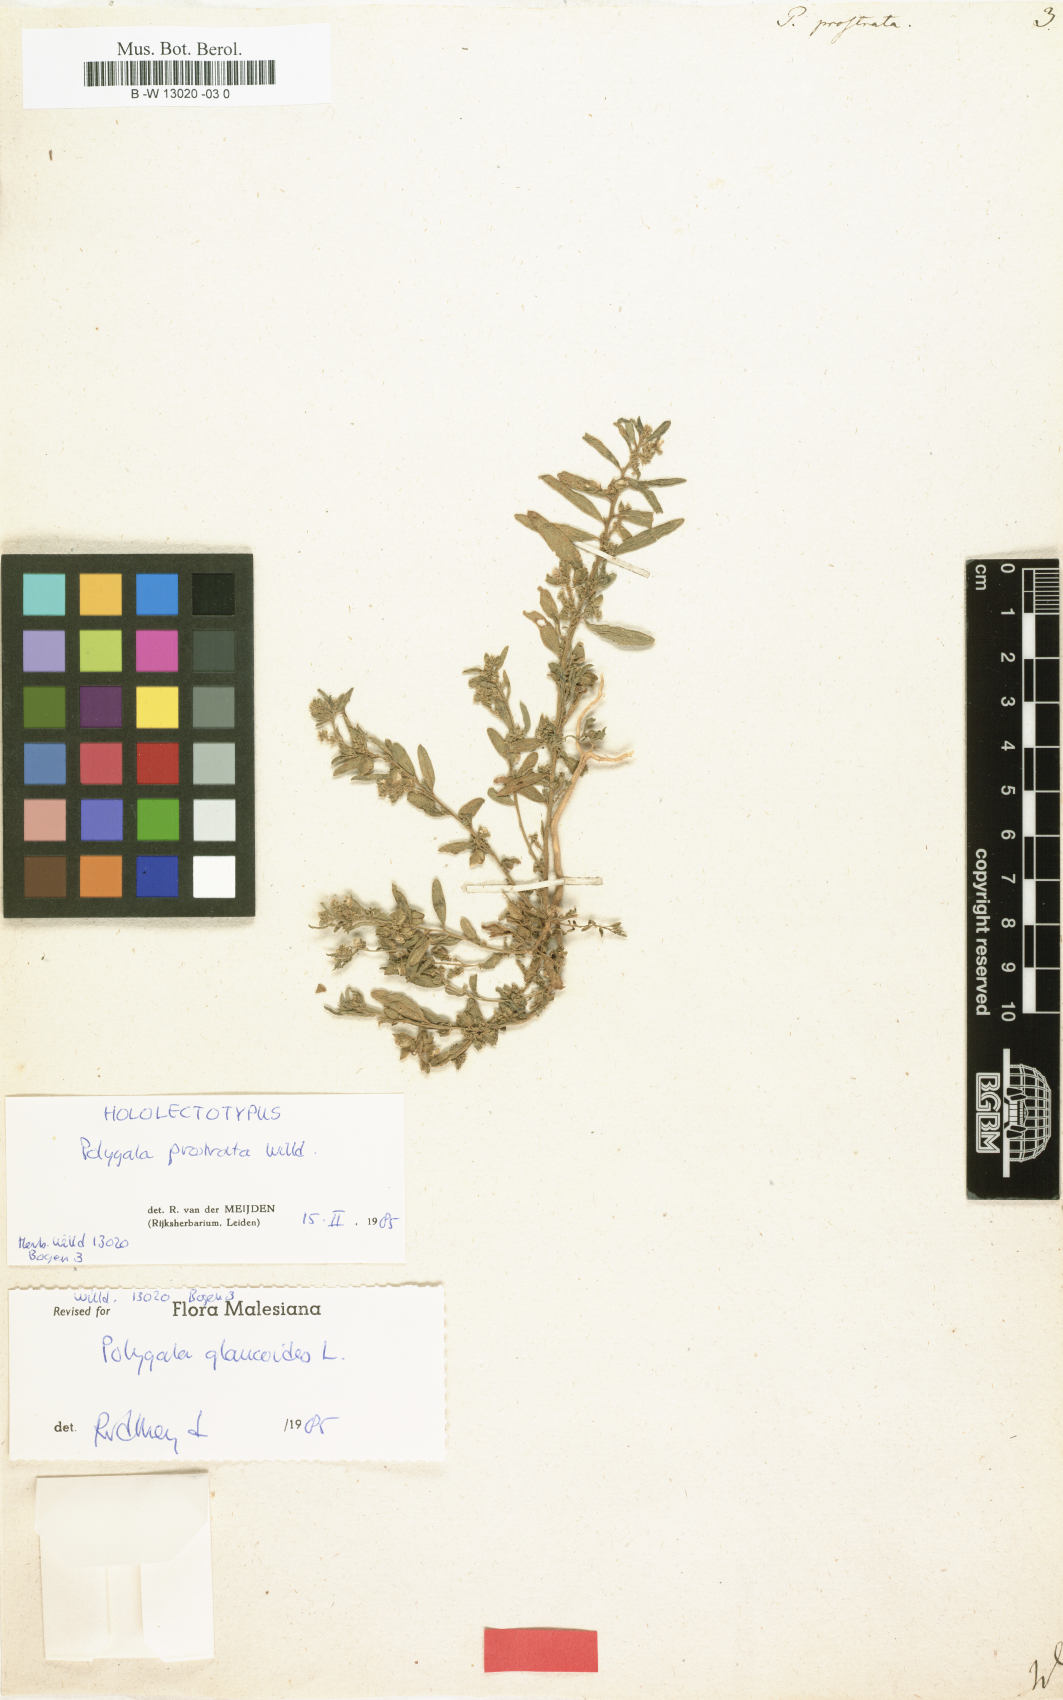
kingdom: Plantae
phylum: Tracheophyta
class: Magnoliopsida
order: Fabales
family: Polygalaceae
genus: Polygala
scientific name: Polygala
